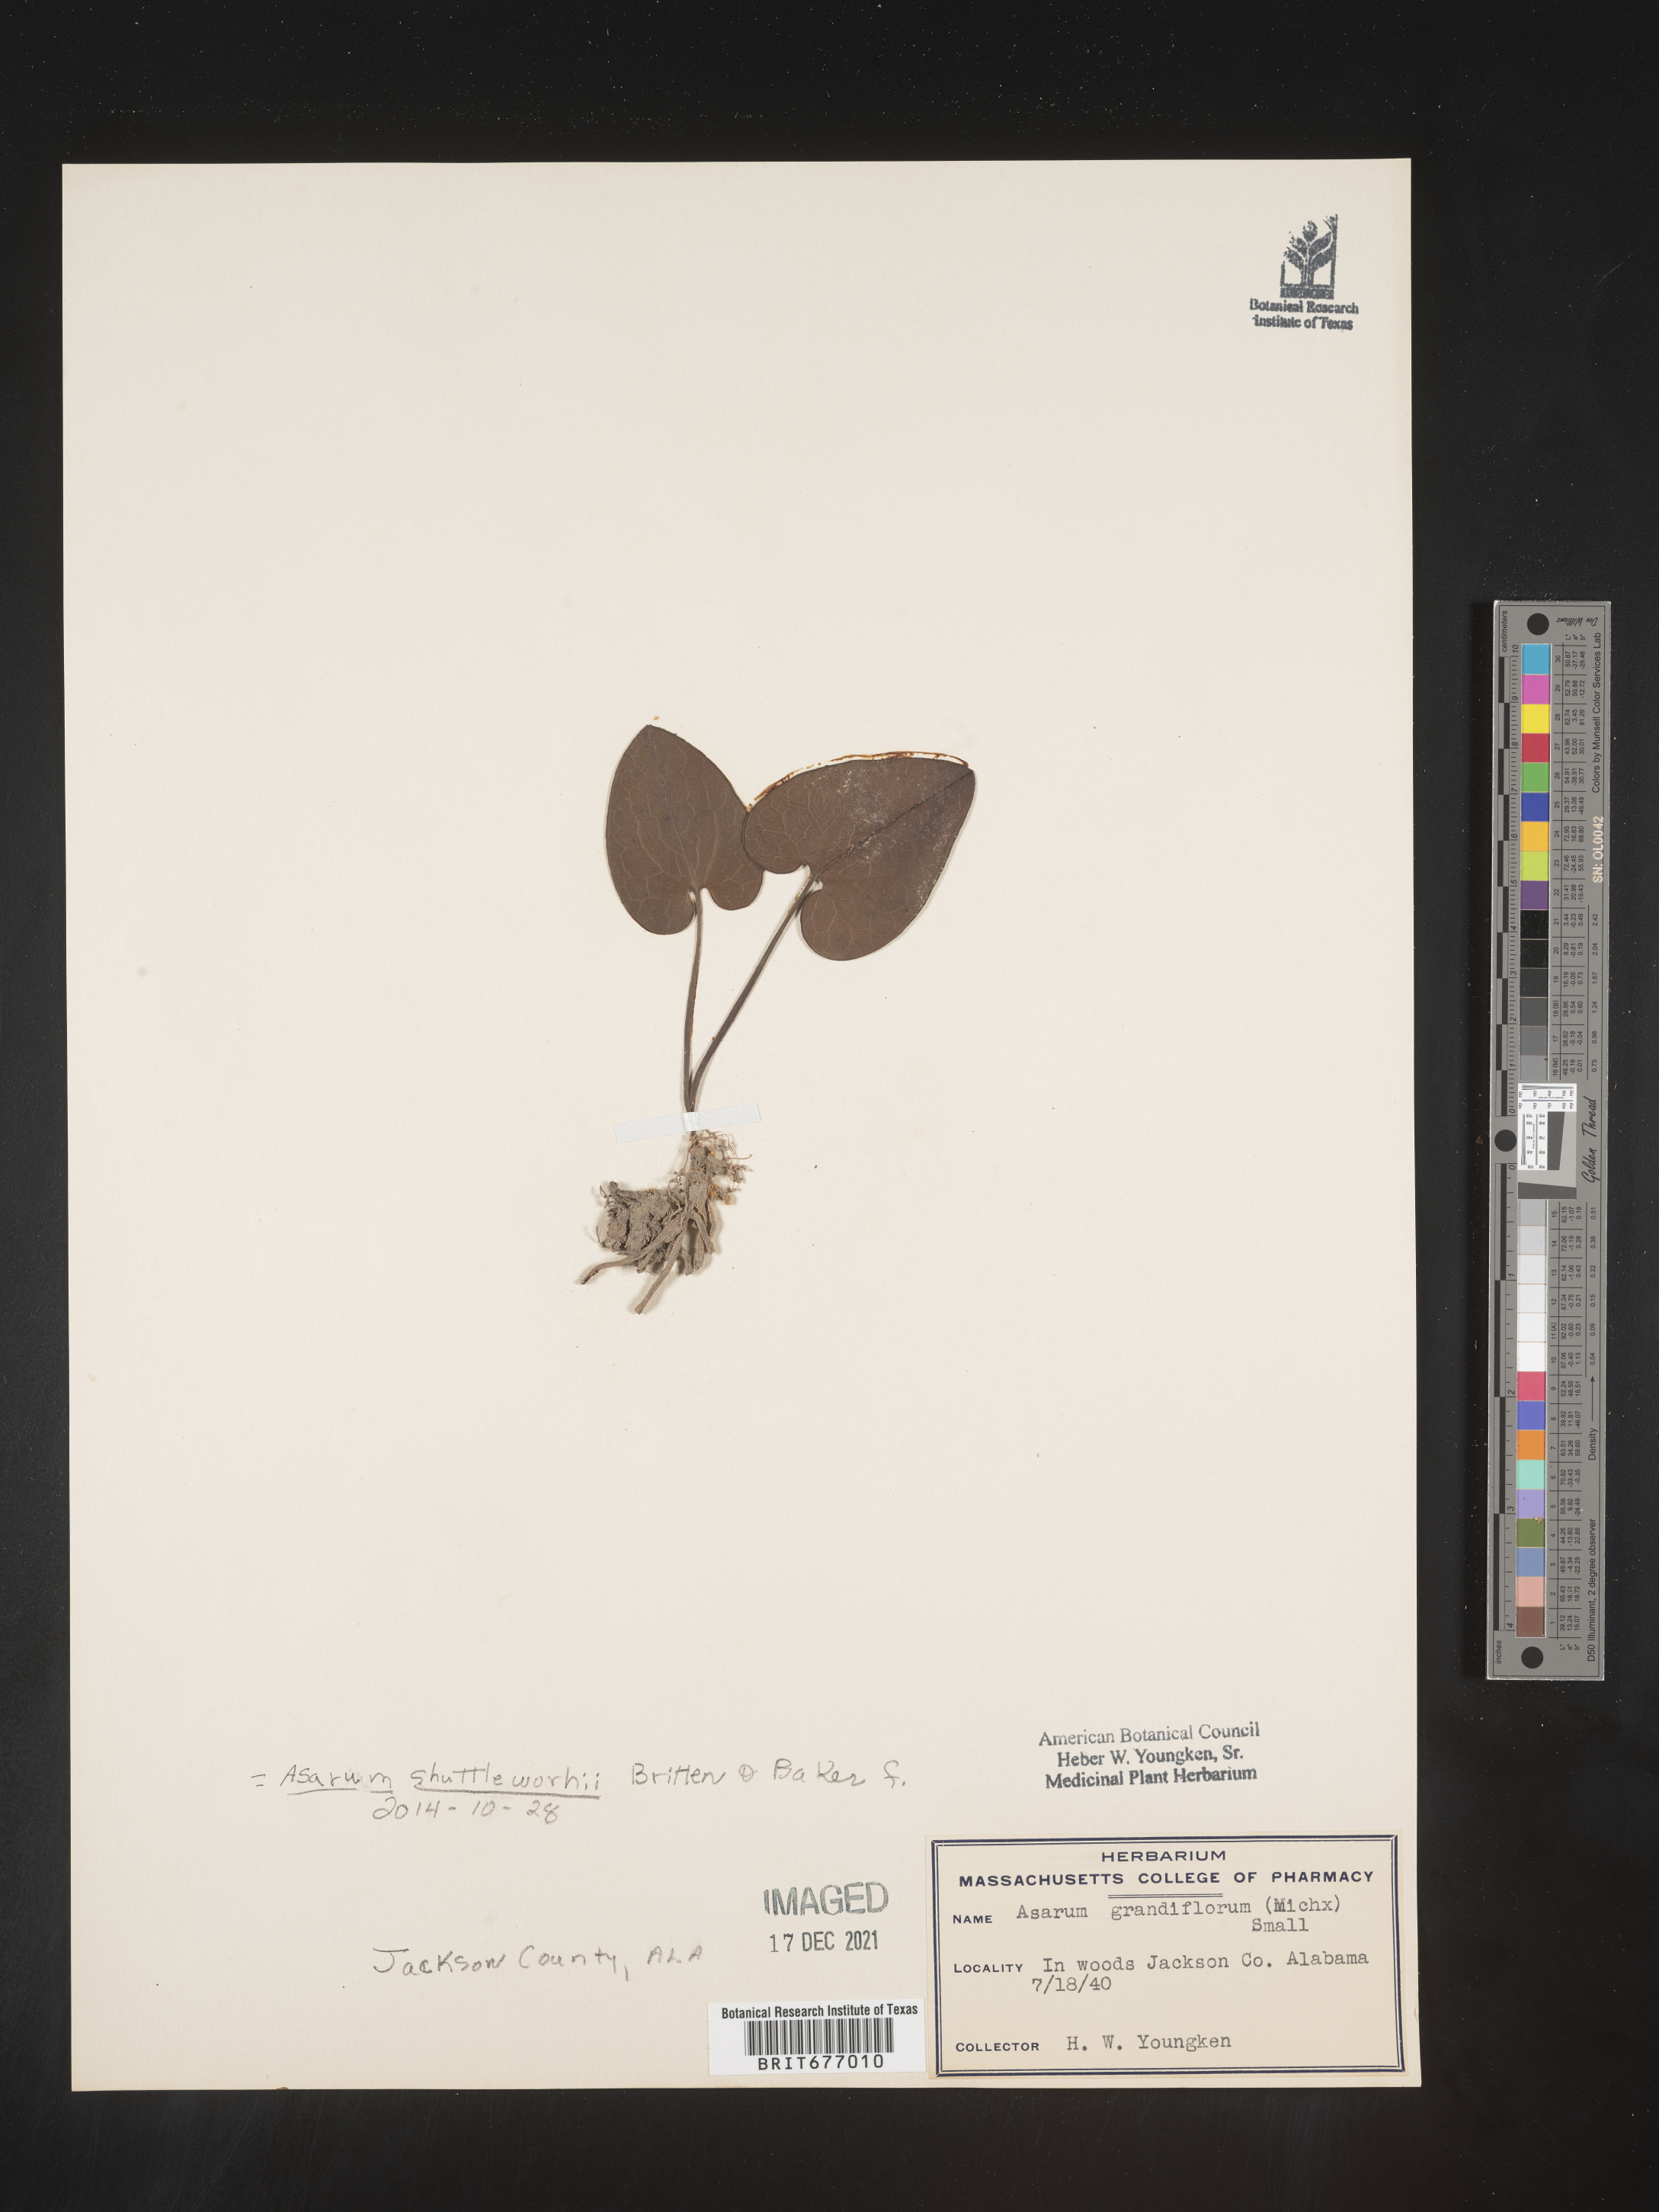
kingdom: Plantae
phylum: Tracheophyta
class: Magnoliopsida
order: Piperales
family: Aristolochiaceae
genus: Asarum
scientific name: Asarum
